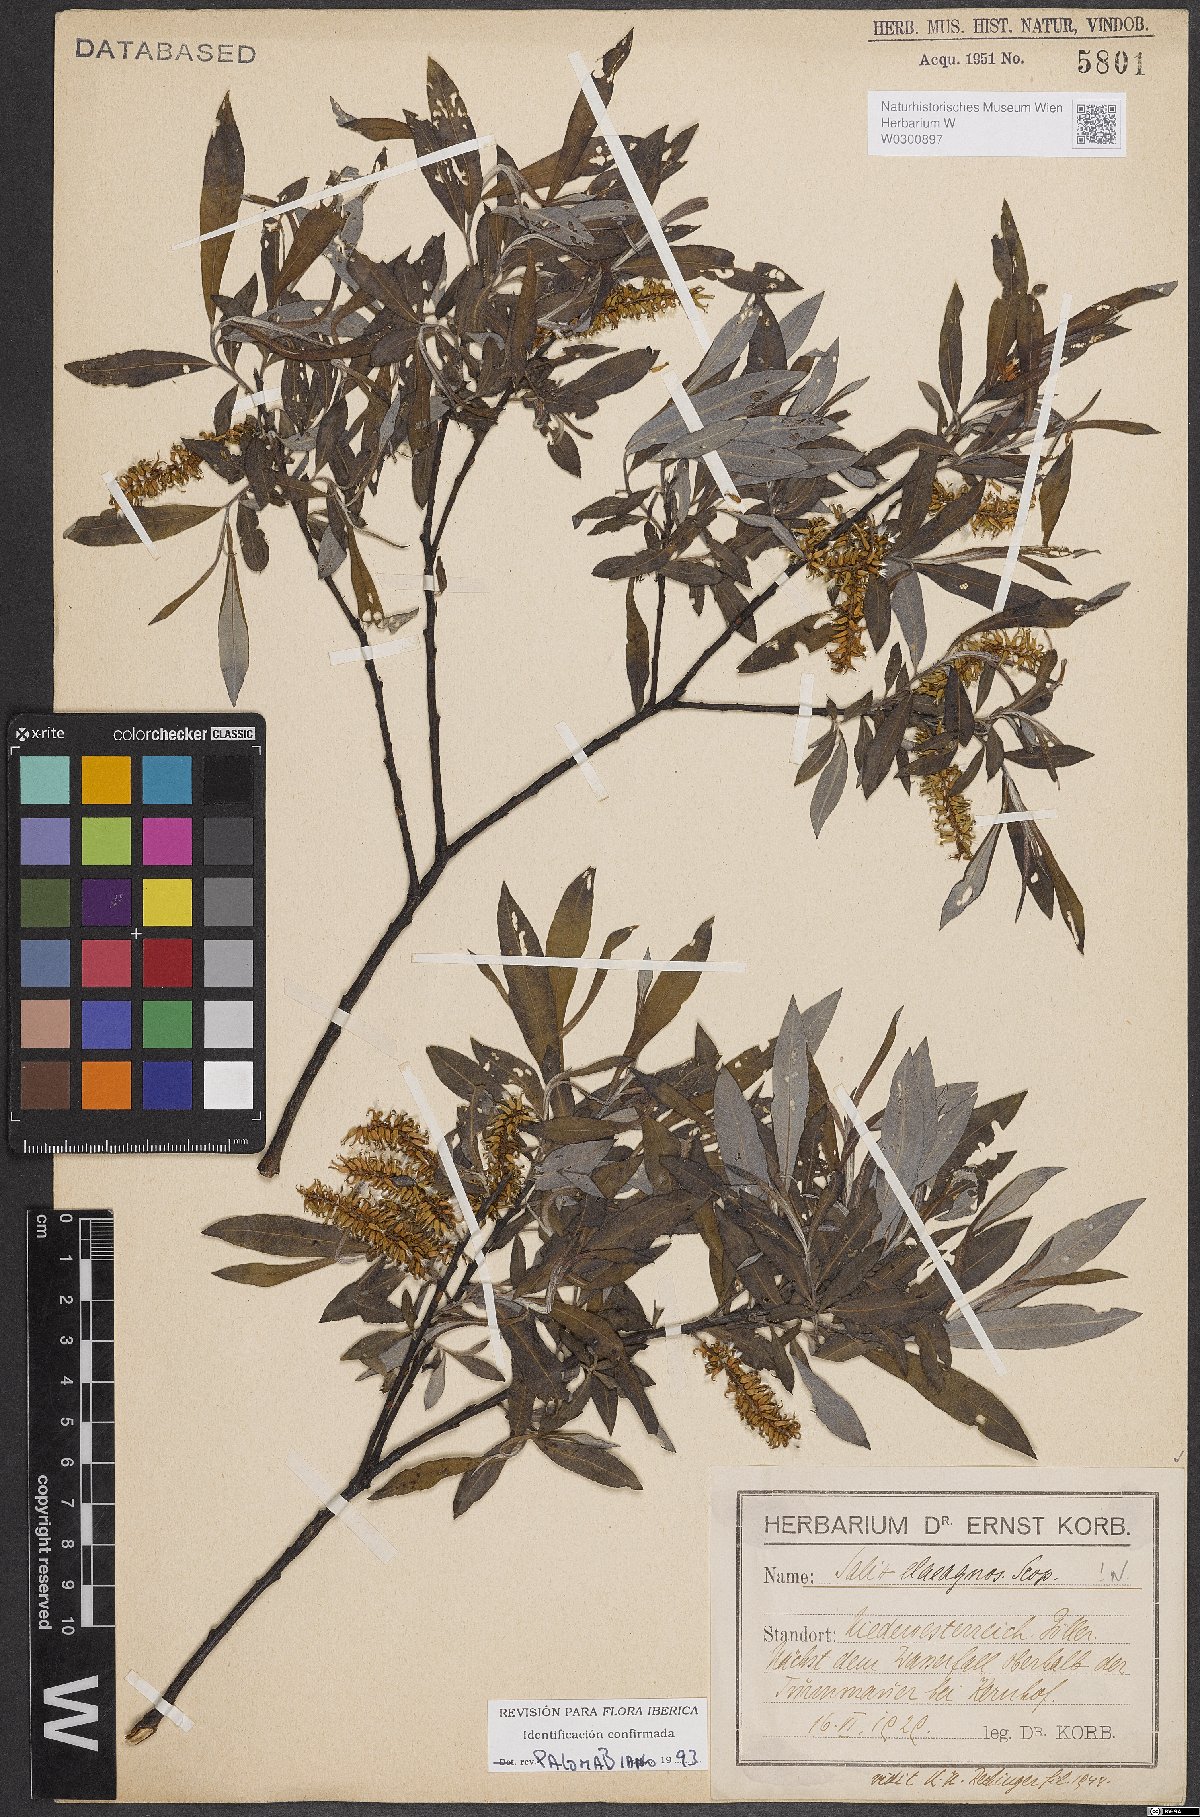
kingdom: Plantae
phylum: Tracheophyta
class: Magnoliopsida
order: Malpighiales
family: Salicaceae
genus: Salix
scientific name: Salix eleagnos
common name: Elaeagnus willow
